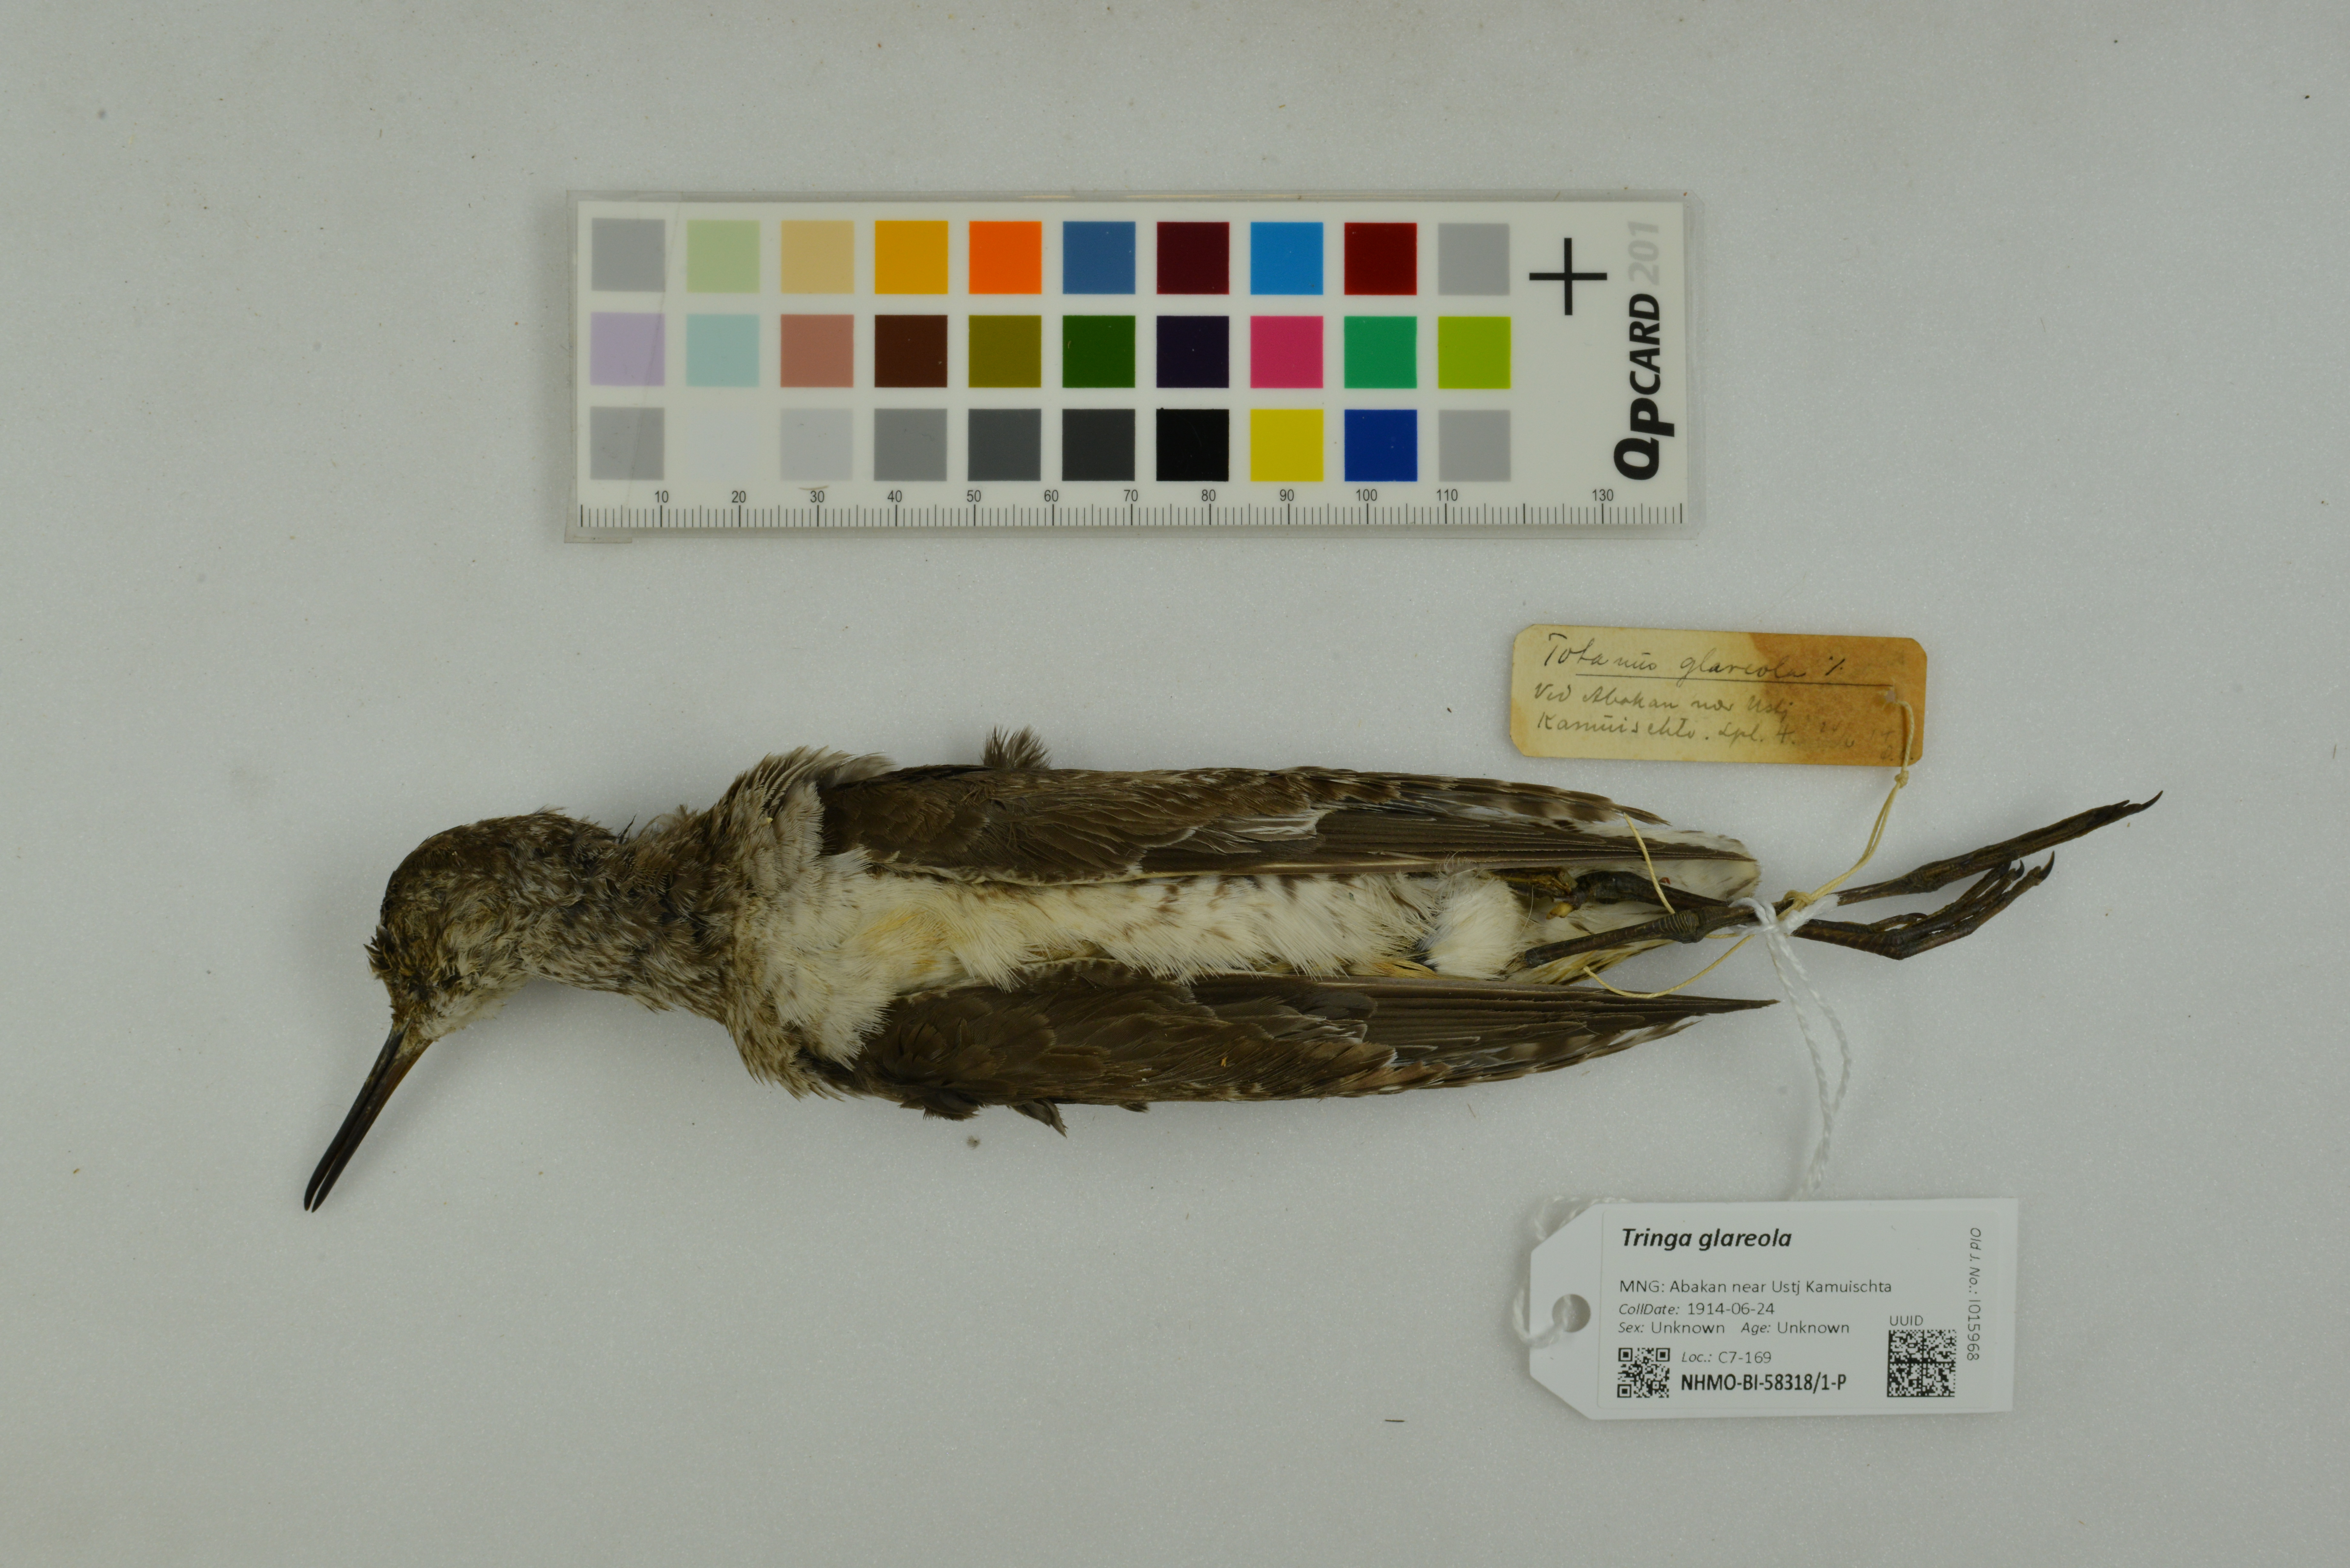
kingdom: Animalia
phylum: Chordata
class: Aves
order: Charadriiformes
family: Scolopacidae
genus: Tringa
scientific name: Tringa glareola
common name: Wood sandpiper
